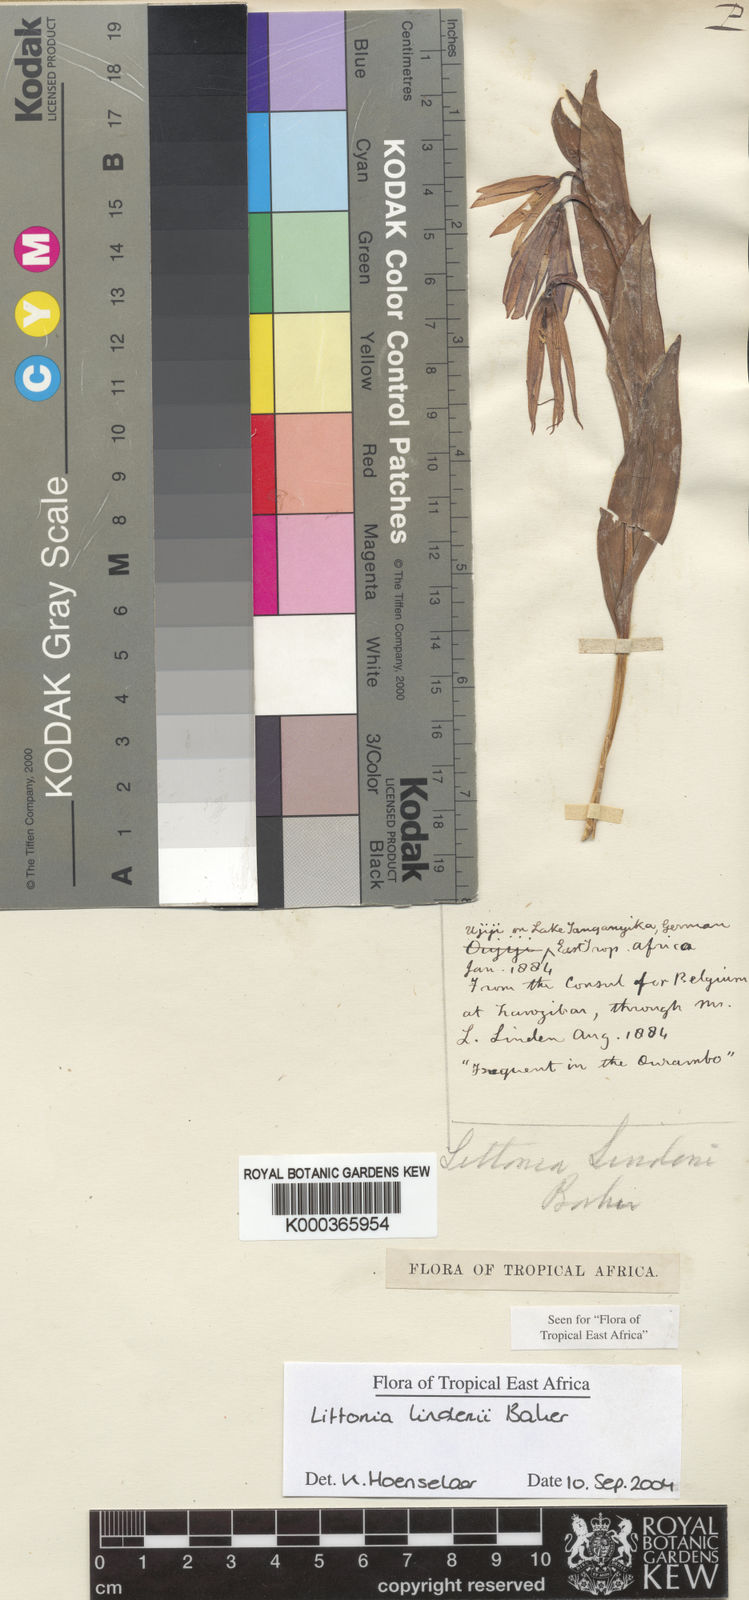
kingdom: Plantae
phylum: Tracheophyta
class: Liliopsida
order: Liliales
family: Colchicaceae
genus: Gloriosa
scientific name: Gloriosa lindenii
